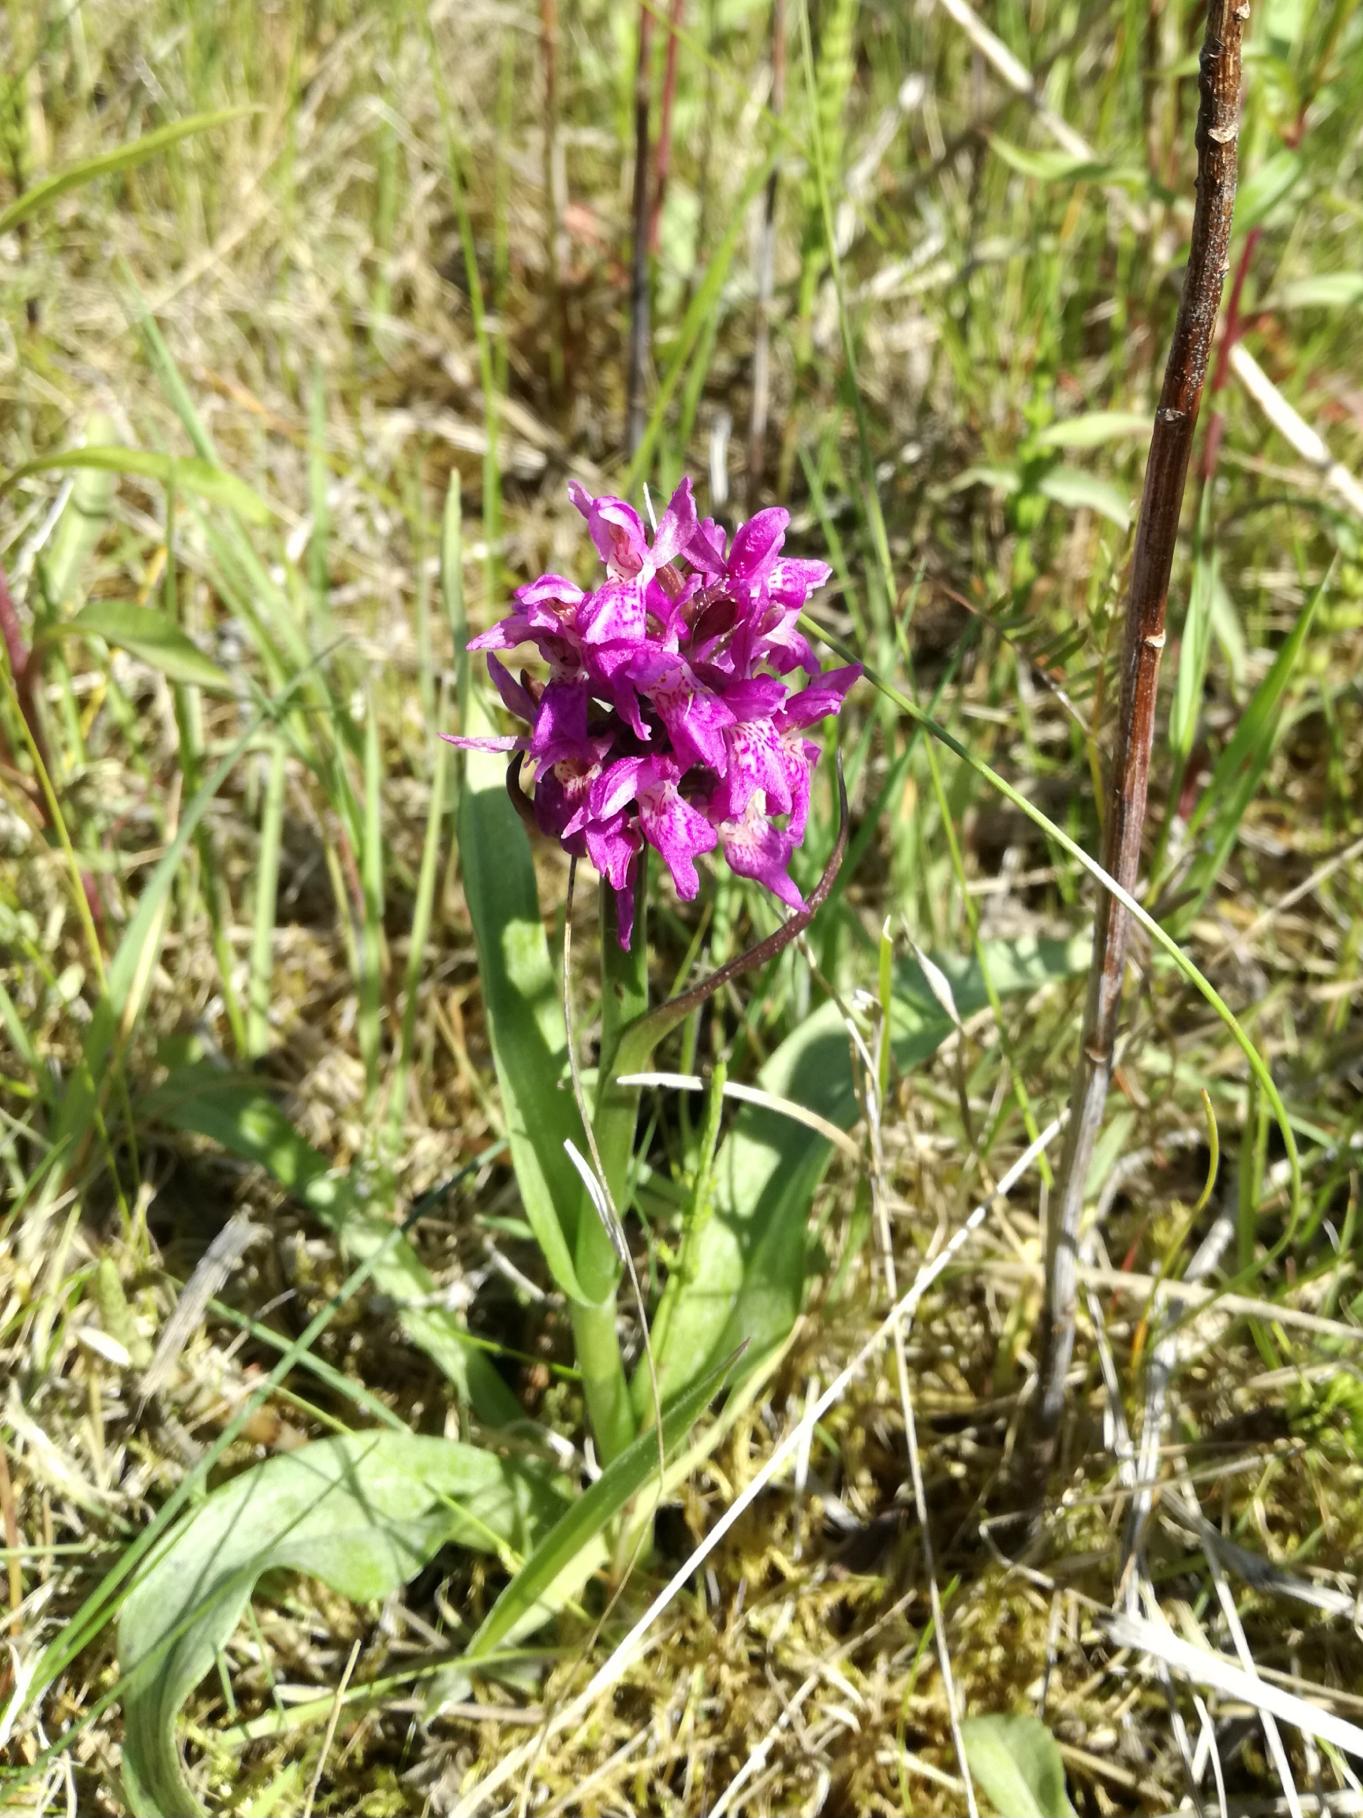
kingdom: Plantae
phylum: Tracheophyta
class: Liliopsida
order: Asparagales
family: Orchidaceae
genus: Dactylorhiza
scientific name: Dactylorhiza
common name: Gøgeurt (Dactylorhiza-slægten)
